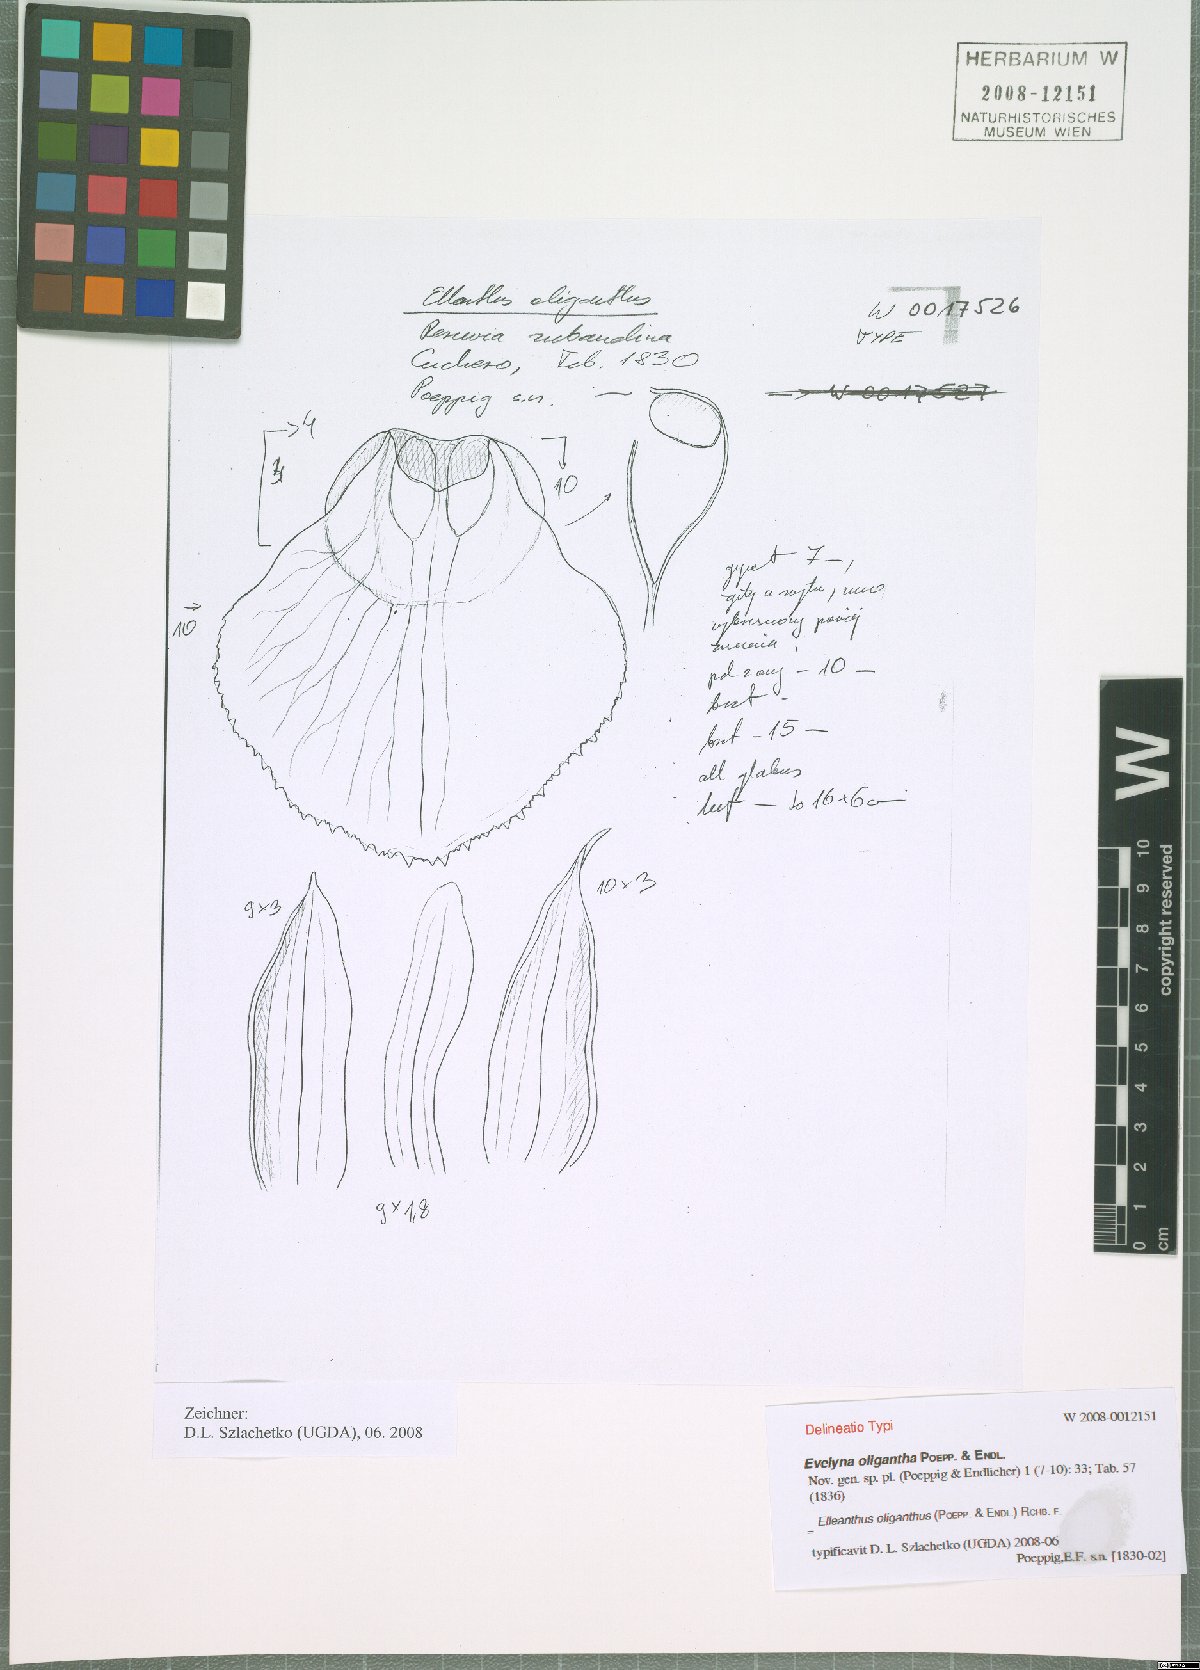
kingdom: Plantae
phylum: Tracheophyta
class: Liliopsida
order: Asparagales
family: Orchidaceae
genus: Elleanthus
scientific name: Elleanthus oliganthus
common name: Sparse blooming elleanthus
